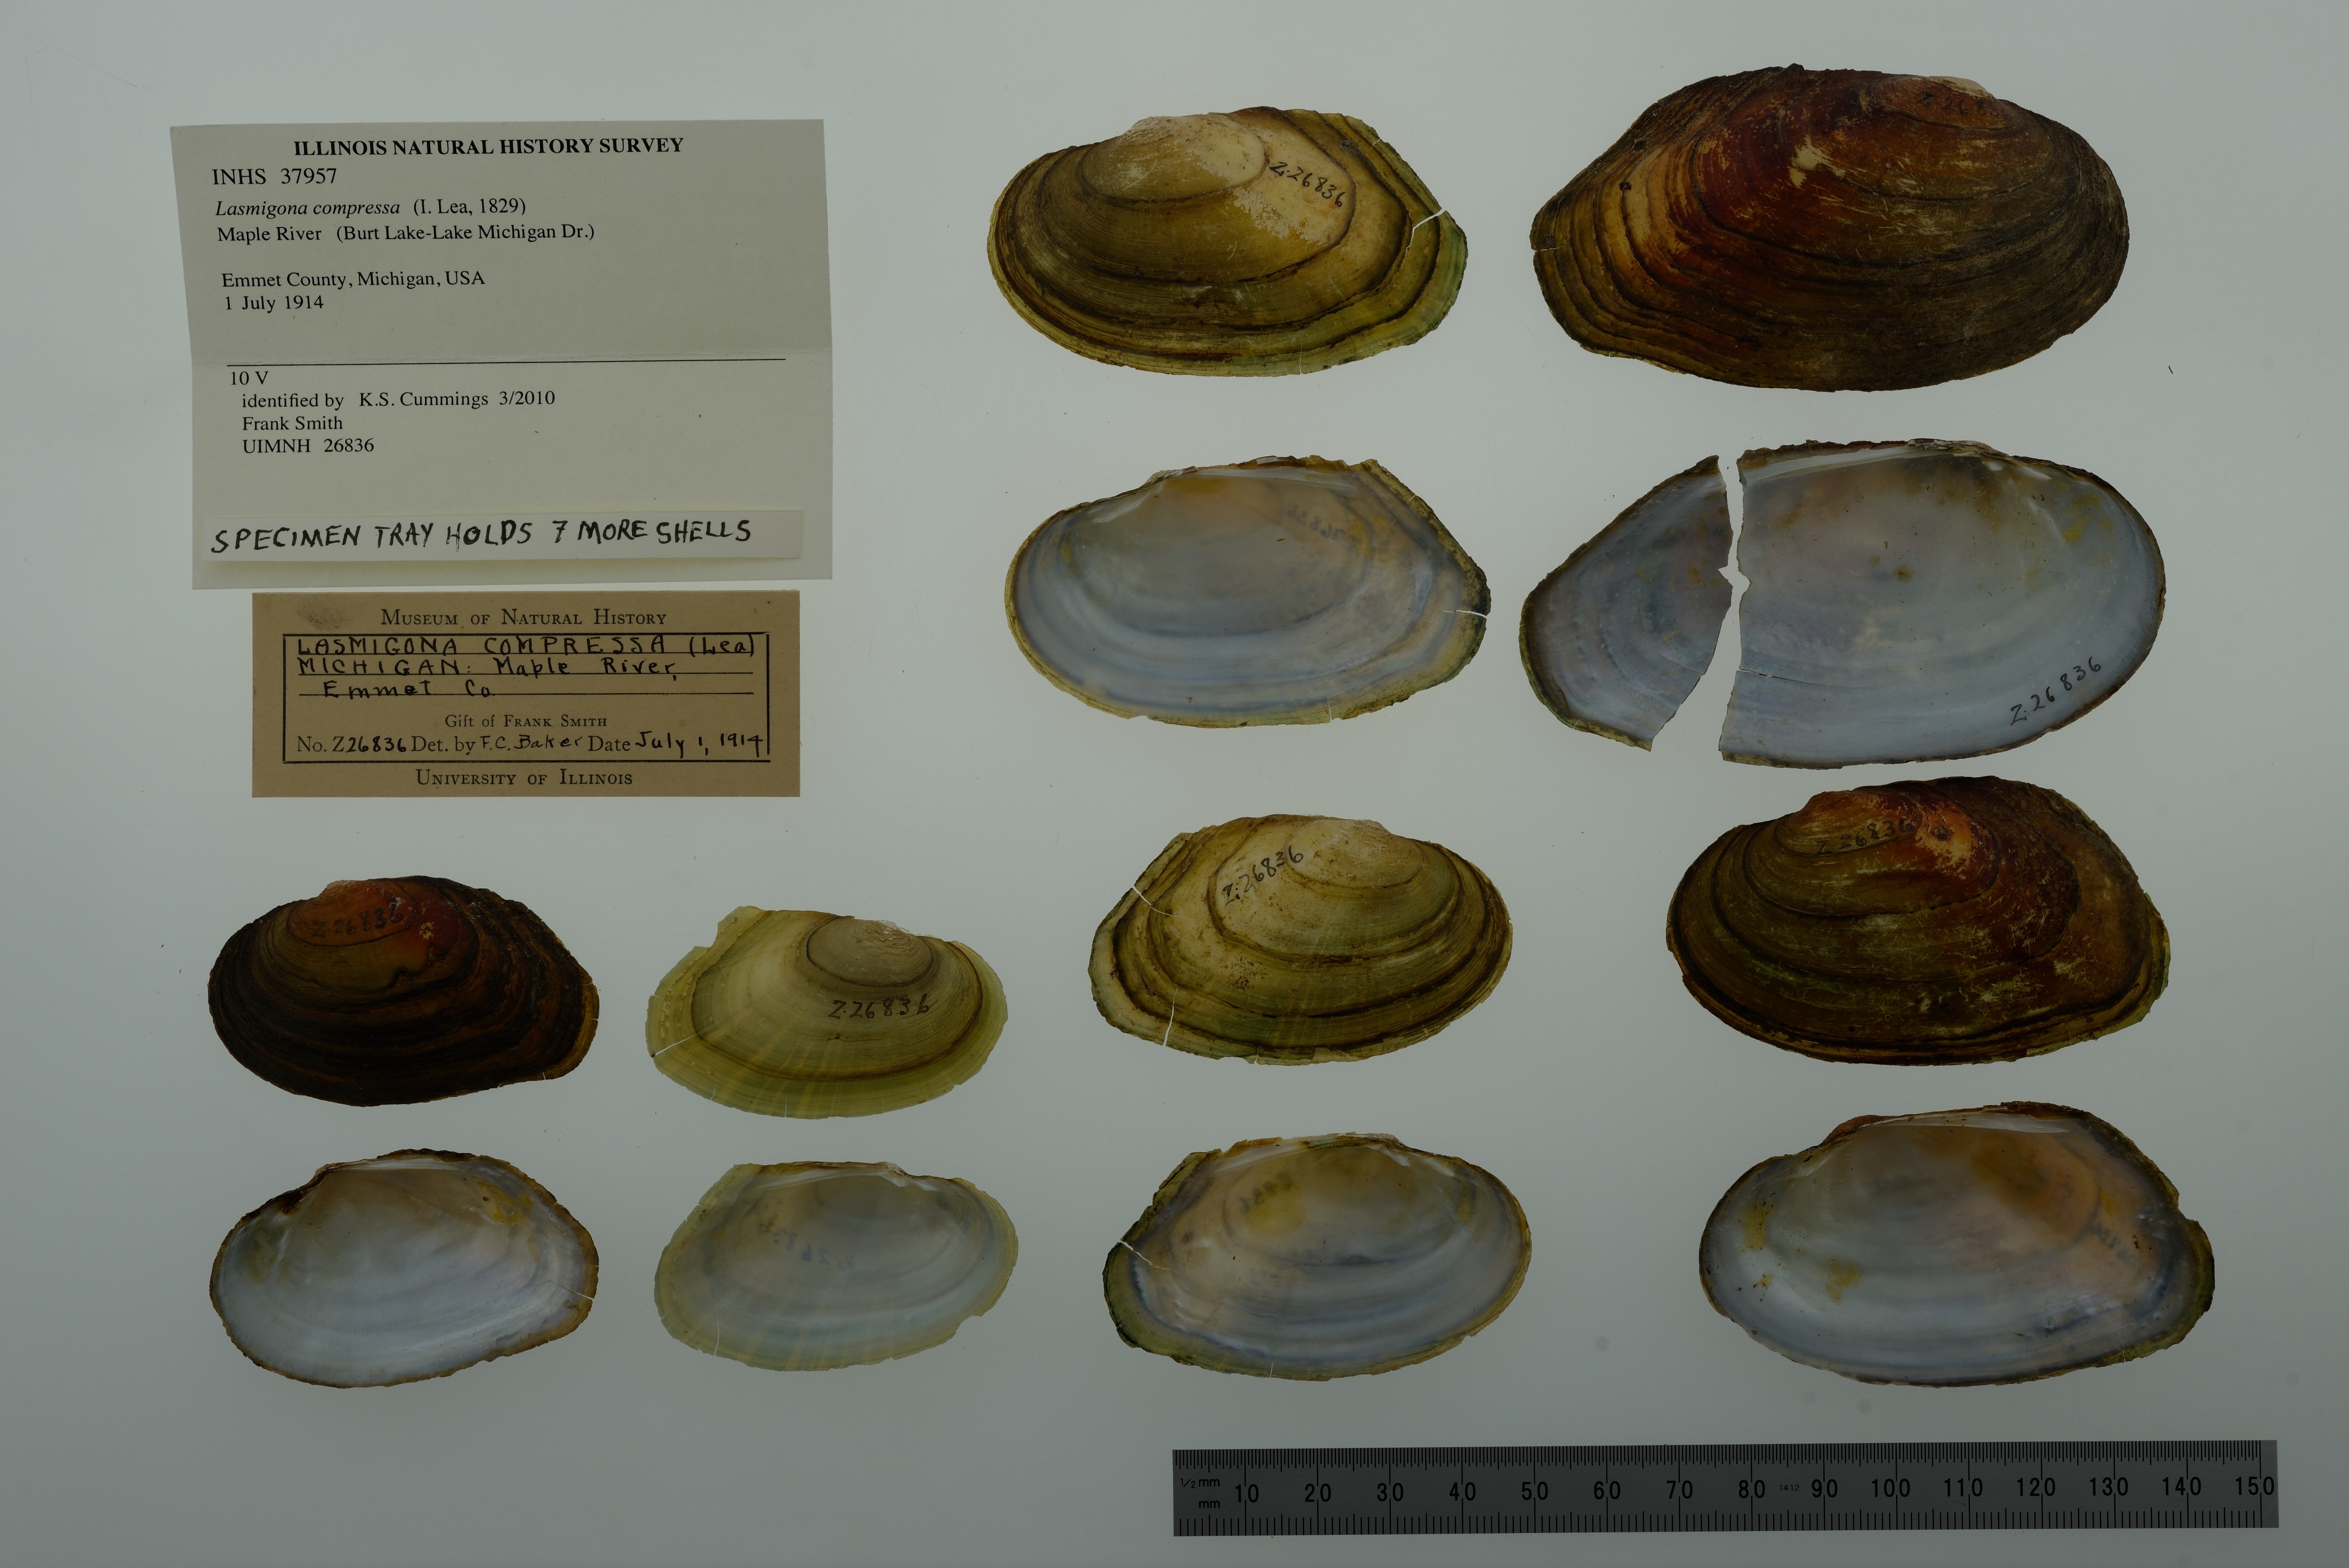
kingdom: Animalia
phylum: Mollusca
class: Bivalvia
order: Unionida
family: Unionidae
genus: Lasmigona
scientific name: Lasmigona compressa
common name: Creek heelsplitter
